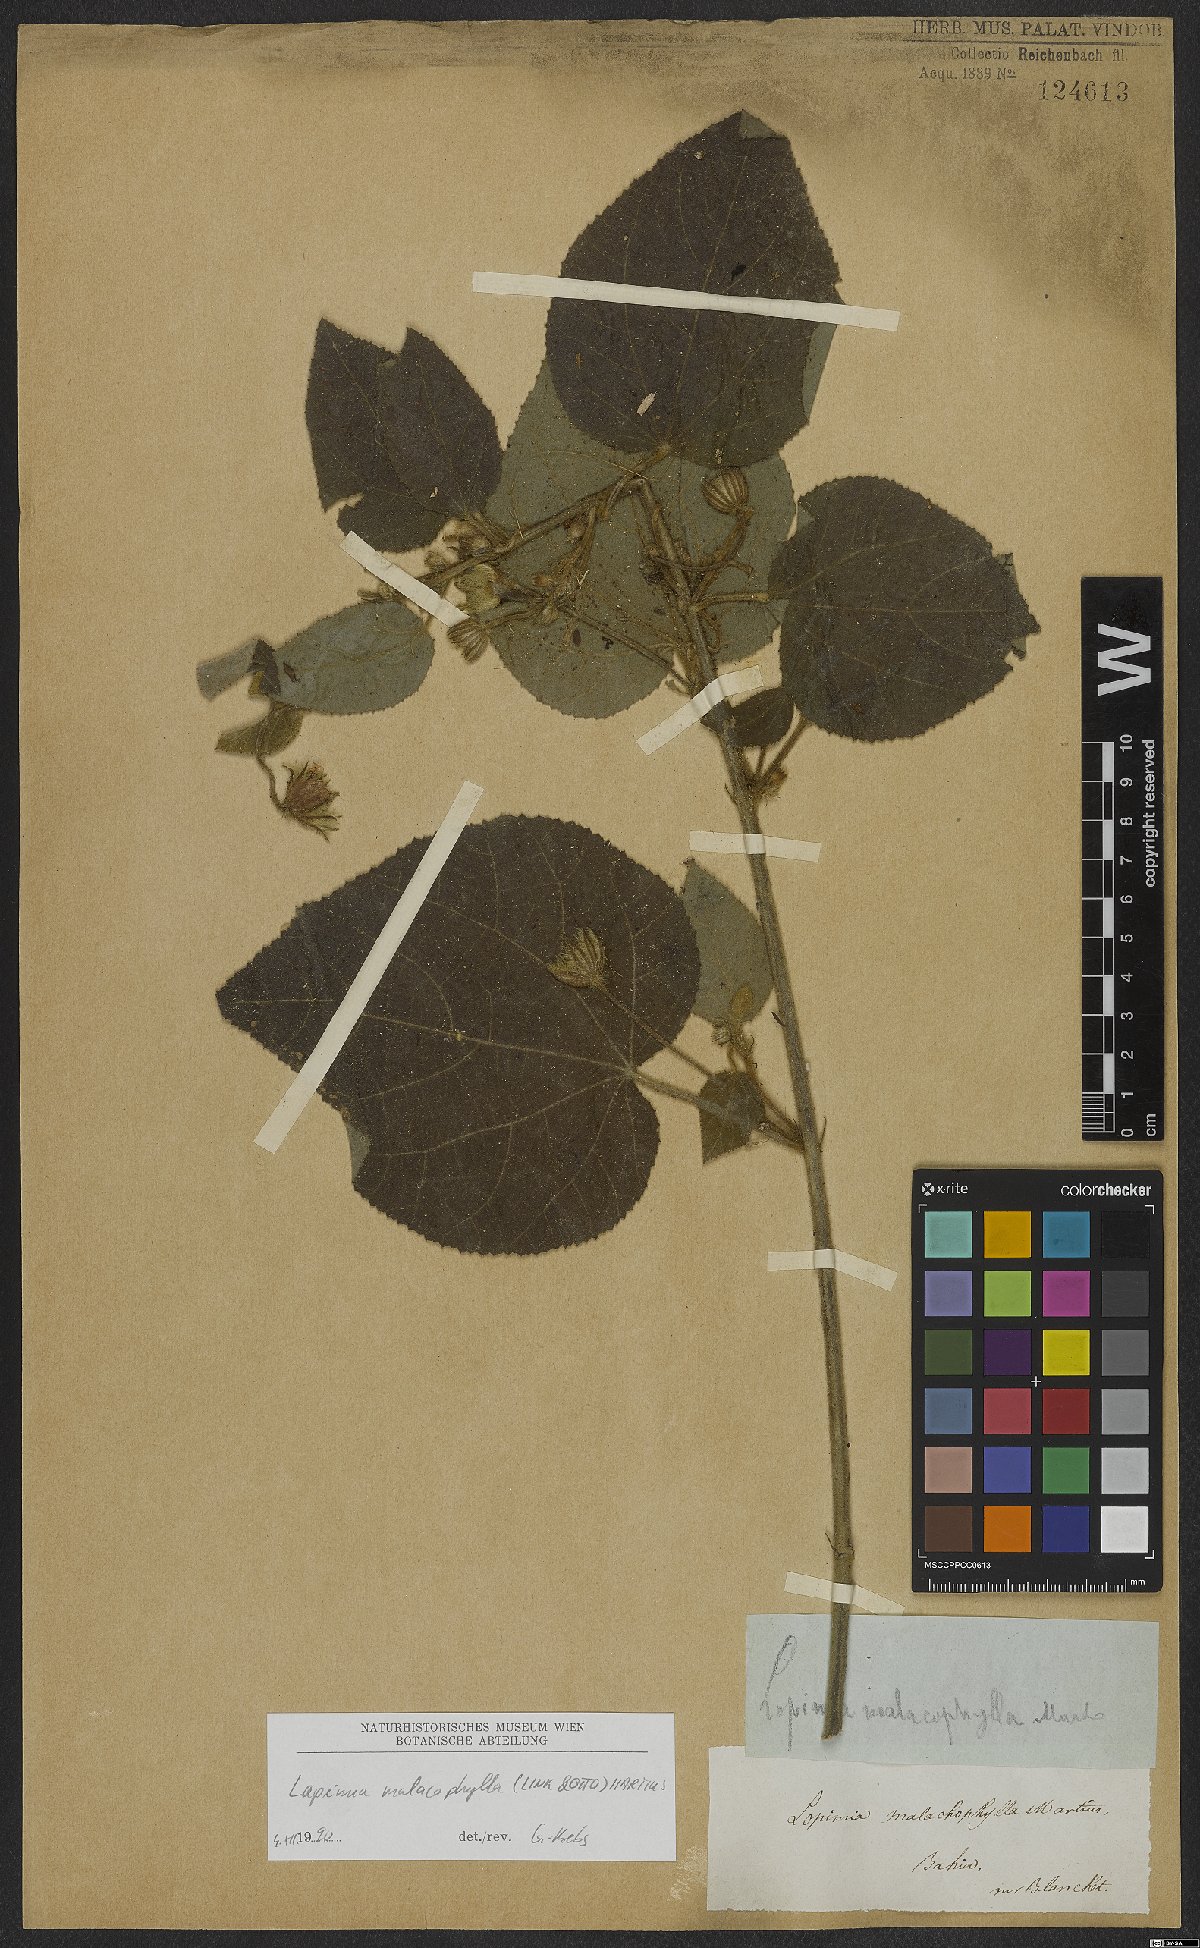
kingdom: Plantae
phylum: Tracheophyta
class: Magnoliopsida
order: Malvales
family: Malvaceae
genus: Pavonia
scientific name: Pavonia malacophylla
